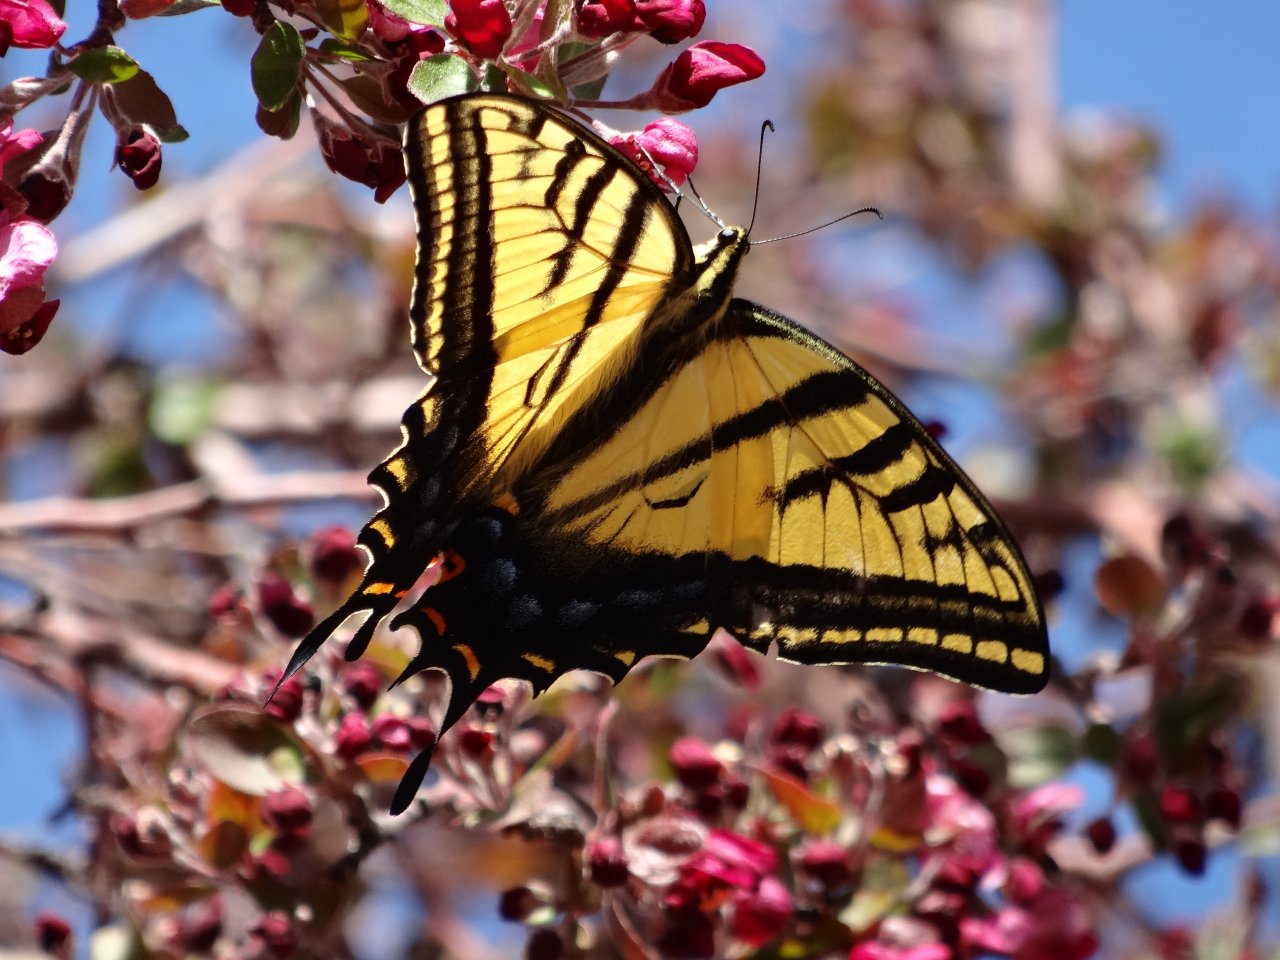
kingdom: Animalia
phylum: Arthropoda
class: Insecta
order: Lepidoptera
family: Papilionidae
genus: Papilio
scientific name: Papilio multicaudata
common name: Two-tailed Swallowtail
